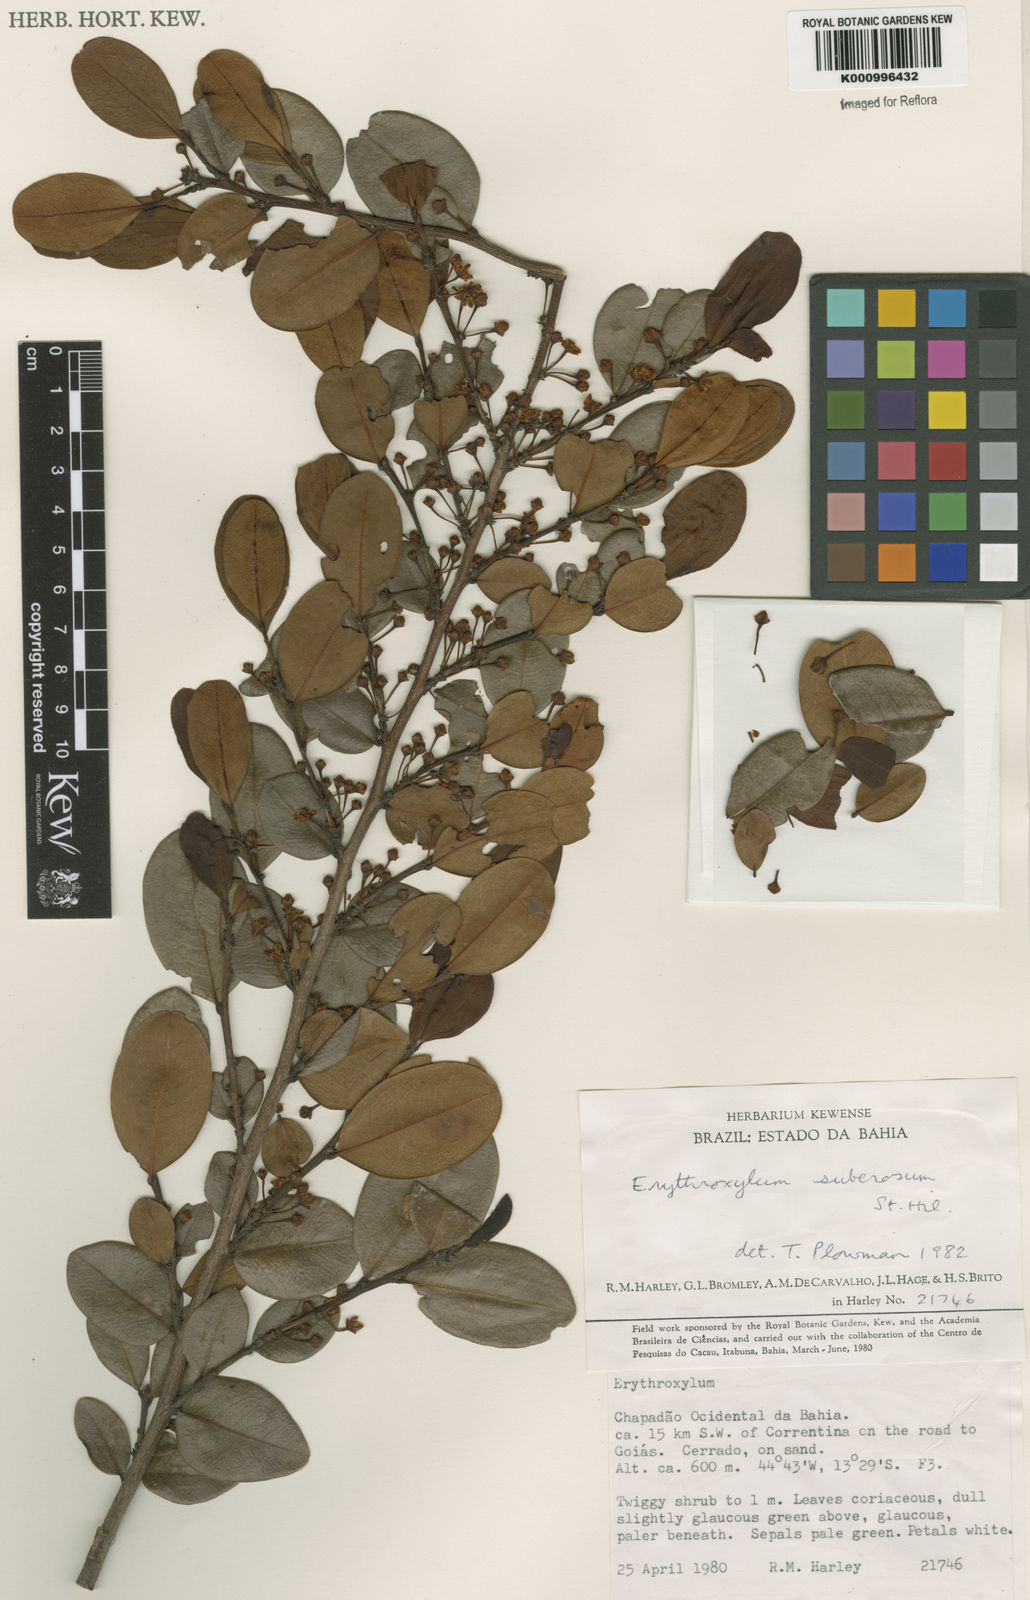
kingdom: Plantae
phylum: Tracheophyta
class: Magnoliopsida
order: Malpighiales
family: Erythroxylaceae
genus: Erythroxylum
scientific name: Erythroxylum suberosum
